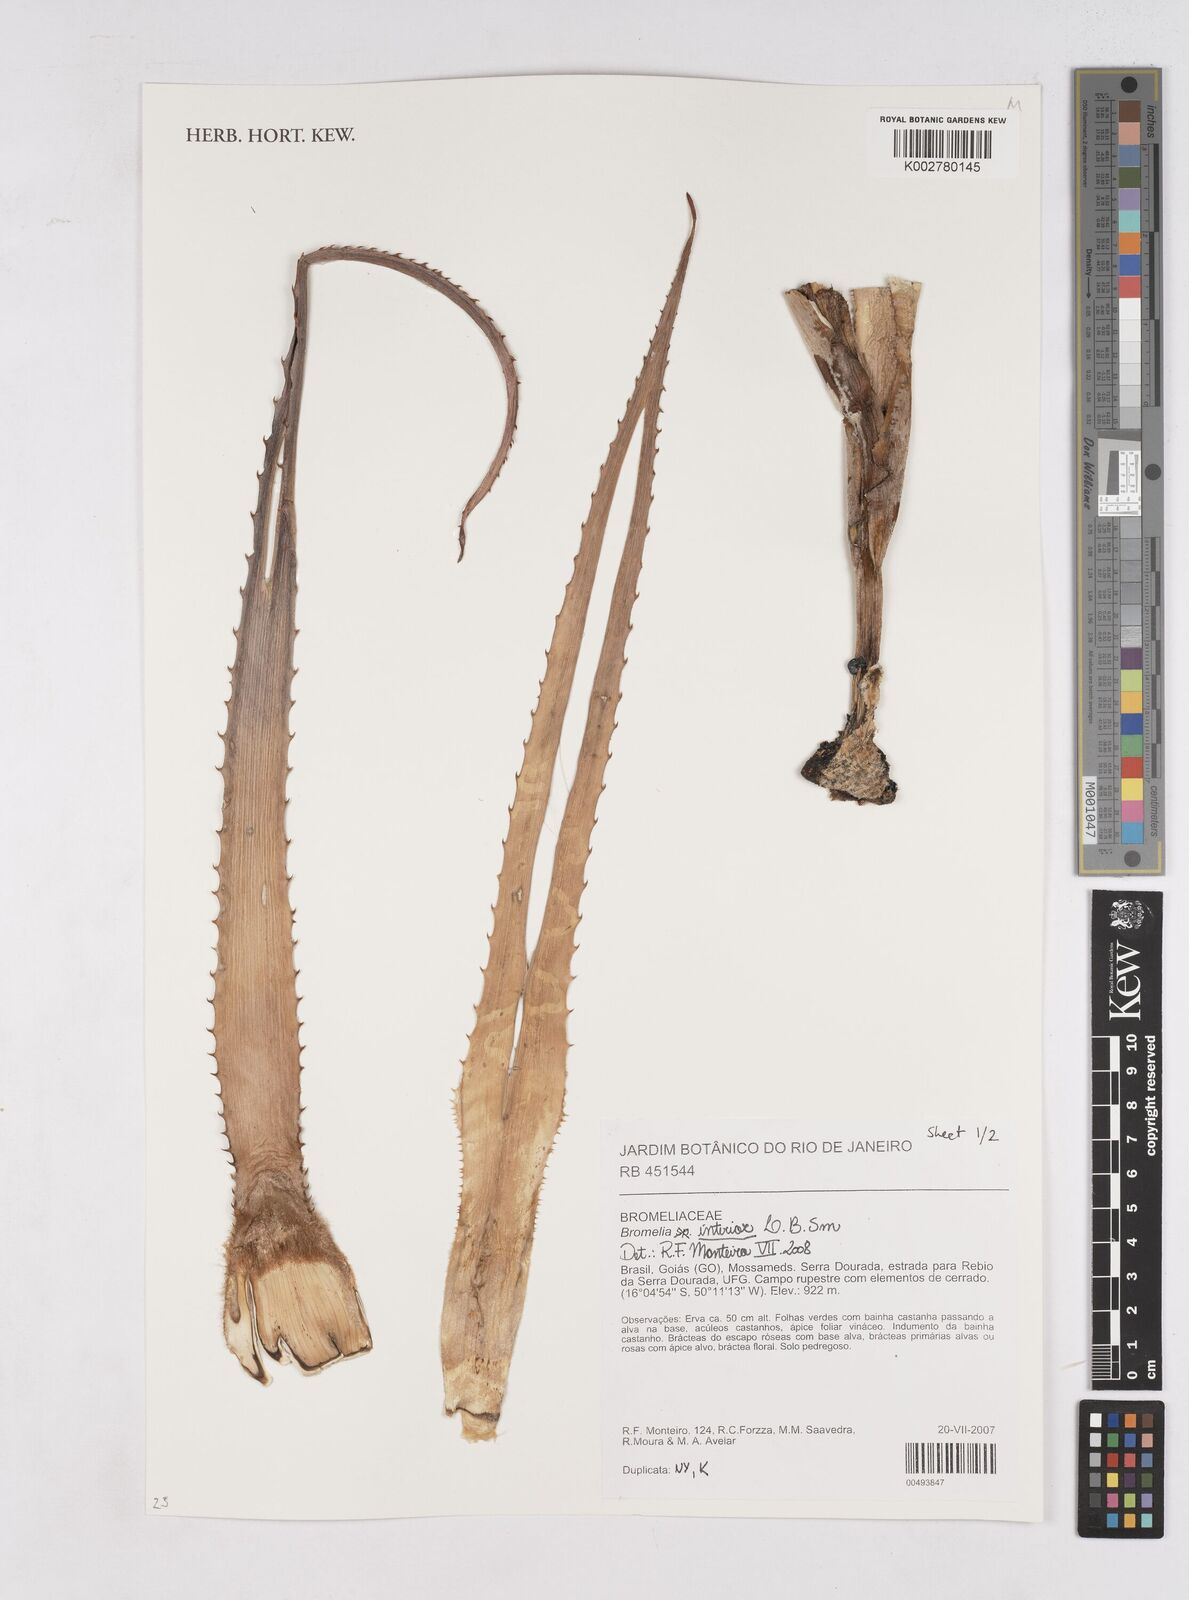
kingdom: Plantae
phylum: Tracheophyta
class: Liliopsida
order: Poales
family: Bromeliaceae
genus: Bromelia
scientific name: Bromelia interior
